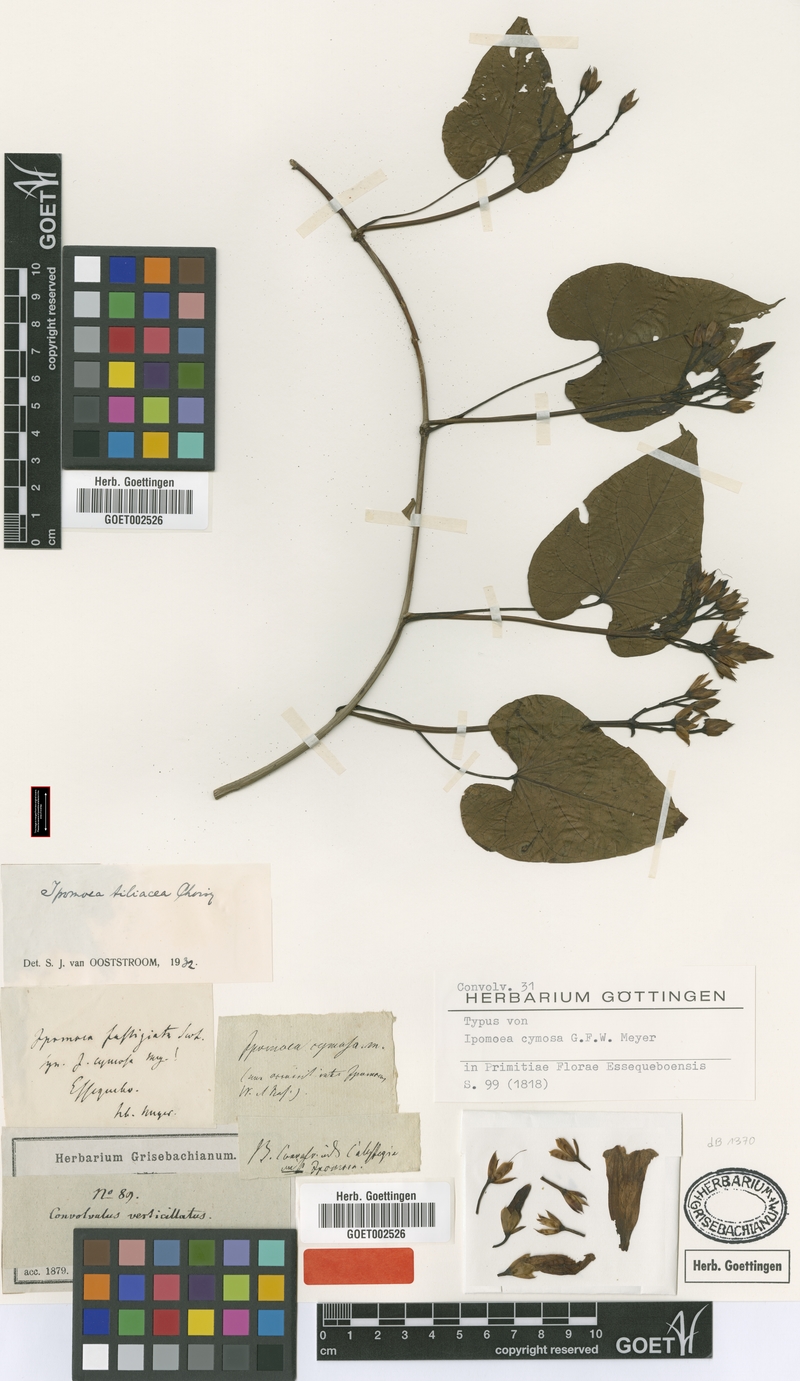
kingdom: Plantae
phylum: Tracheophyta
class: Magnoliopsida
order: Solanales
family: Convolvulaceae
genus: Ipomoea
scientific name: Ipomoea tiliacea
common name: Wild potato vine
